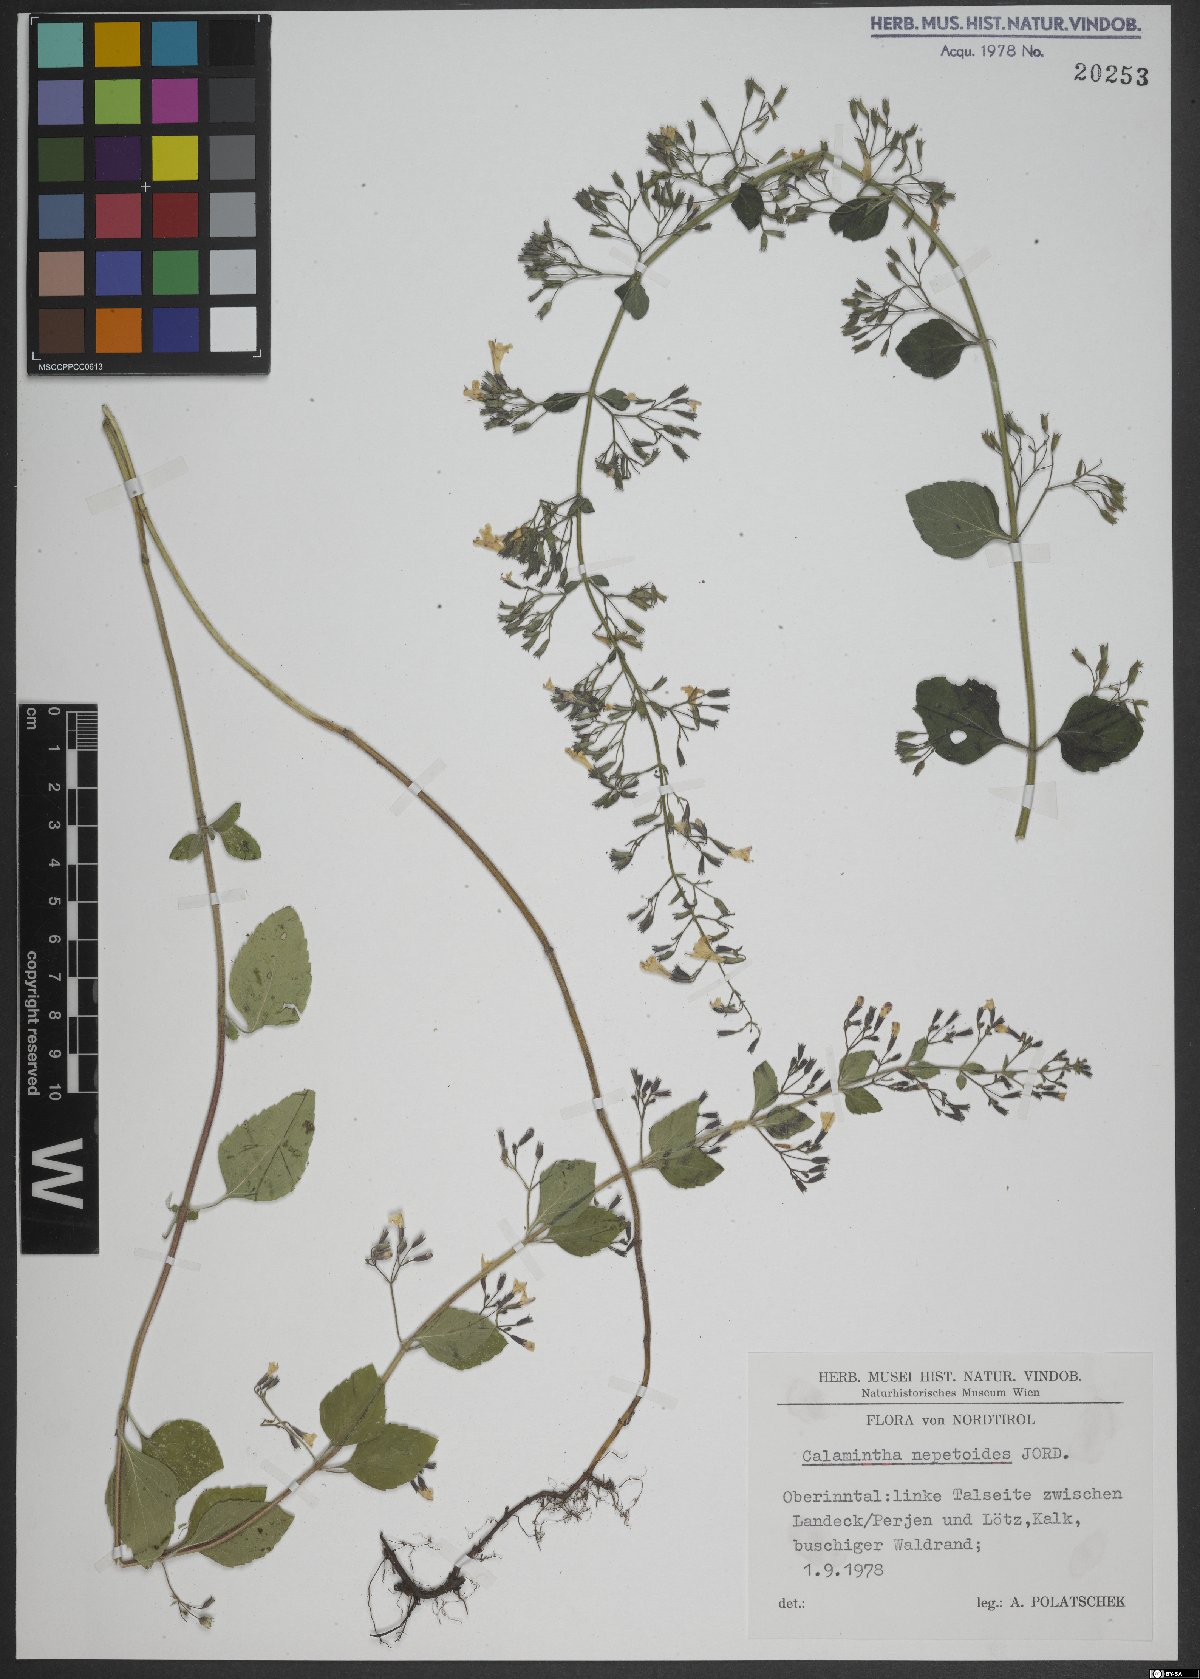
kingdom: Plantae
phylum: Tracheophyta
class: Magnoliopsida
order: Lamiales
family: Lamiaceae
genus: Clinopodium
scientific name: Clinopodium nepeta
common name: Lesser calamint
